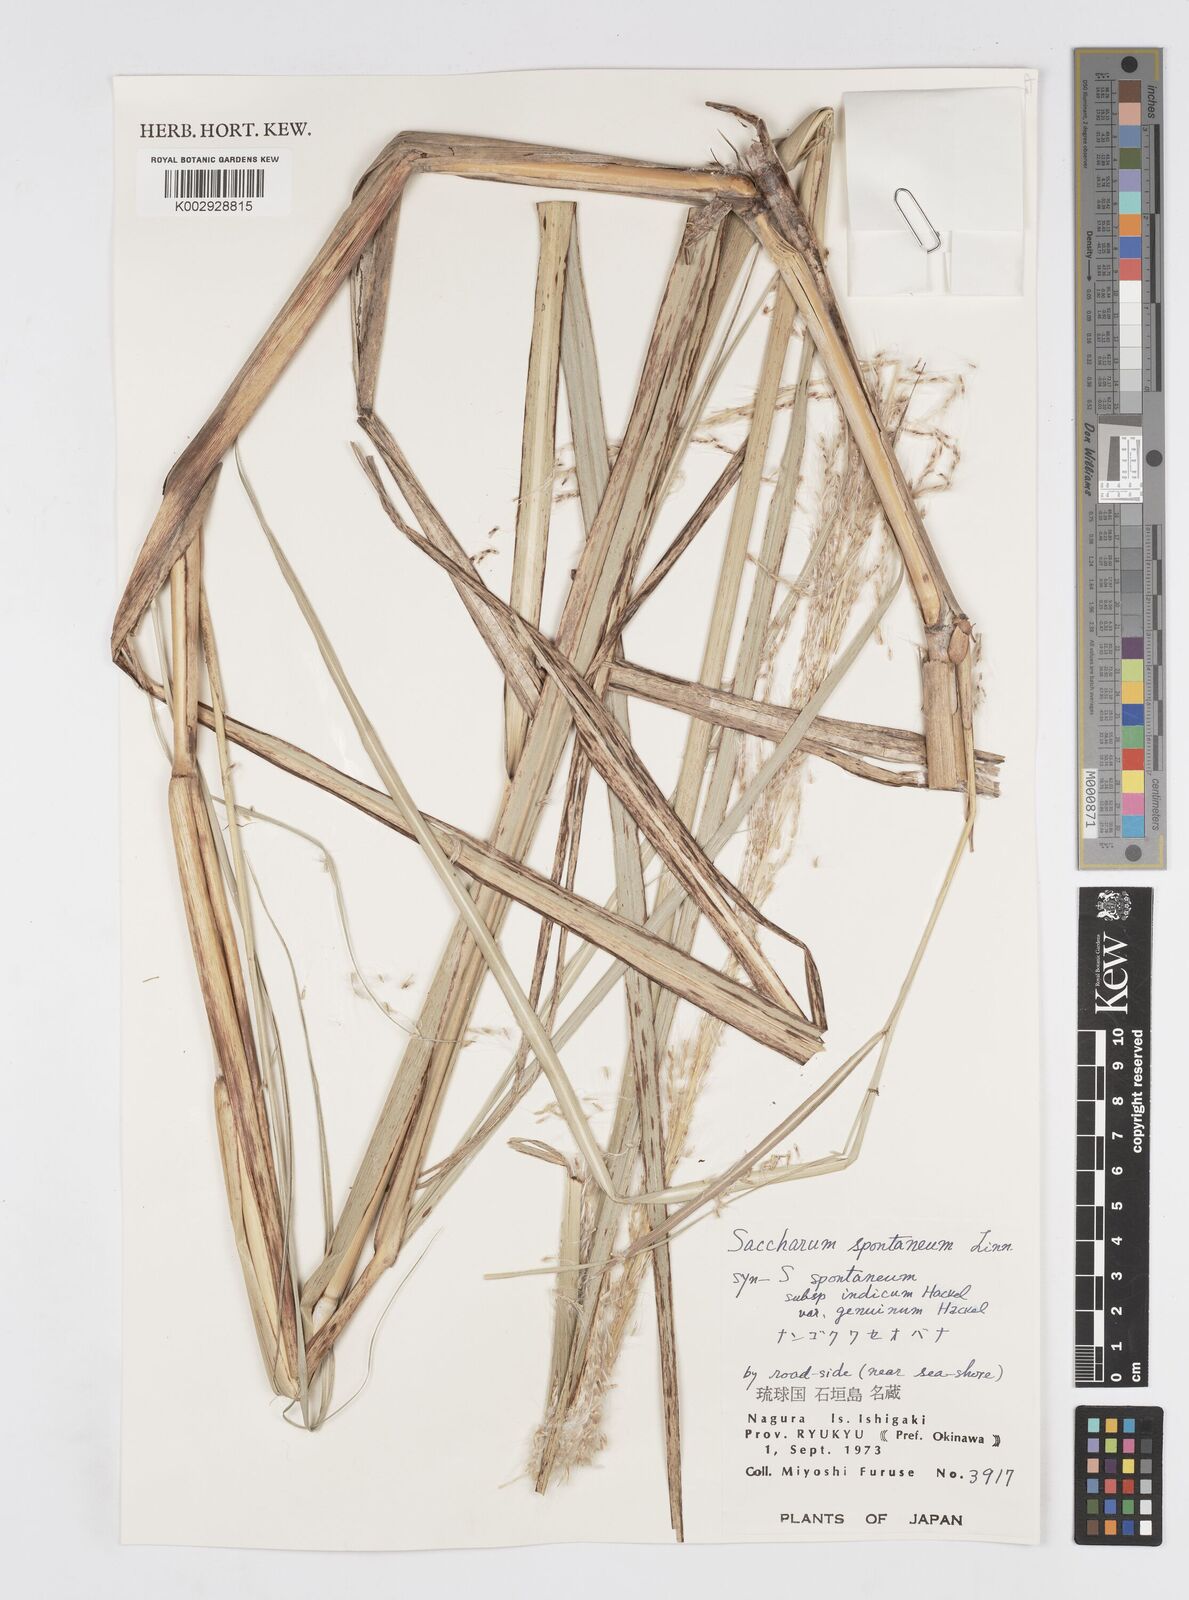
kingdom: Plantae
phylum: Tracheophyta
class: Liliopsida
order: Poales
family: Poaceae
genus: Saccharum
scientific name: Saccharum spontaneum
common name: Wild sugarcane
